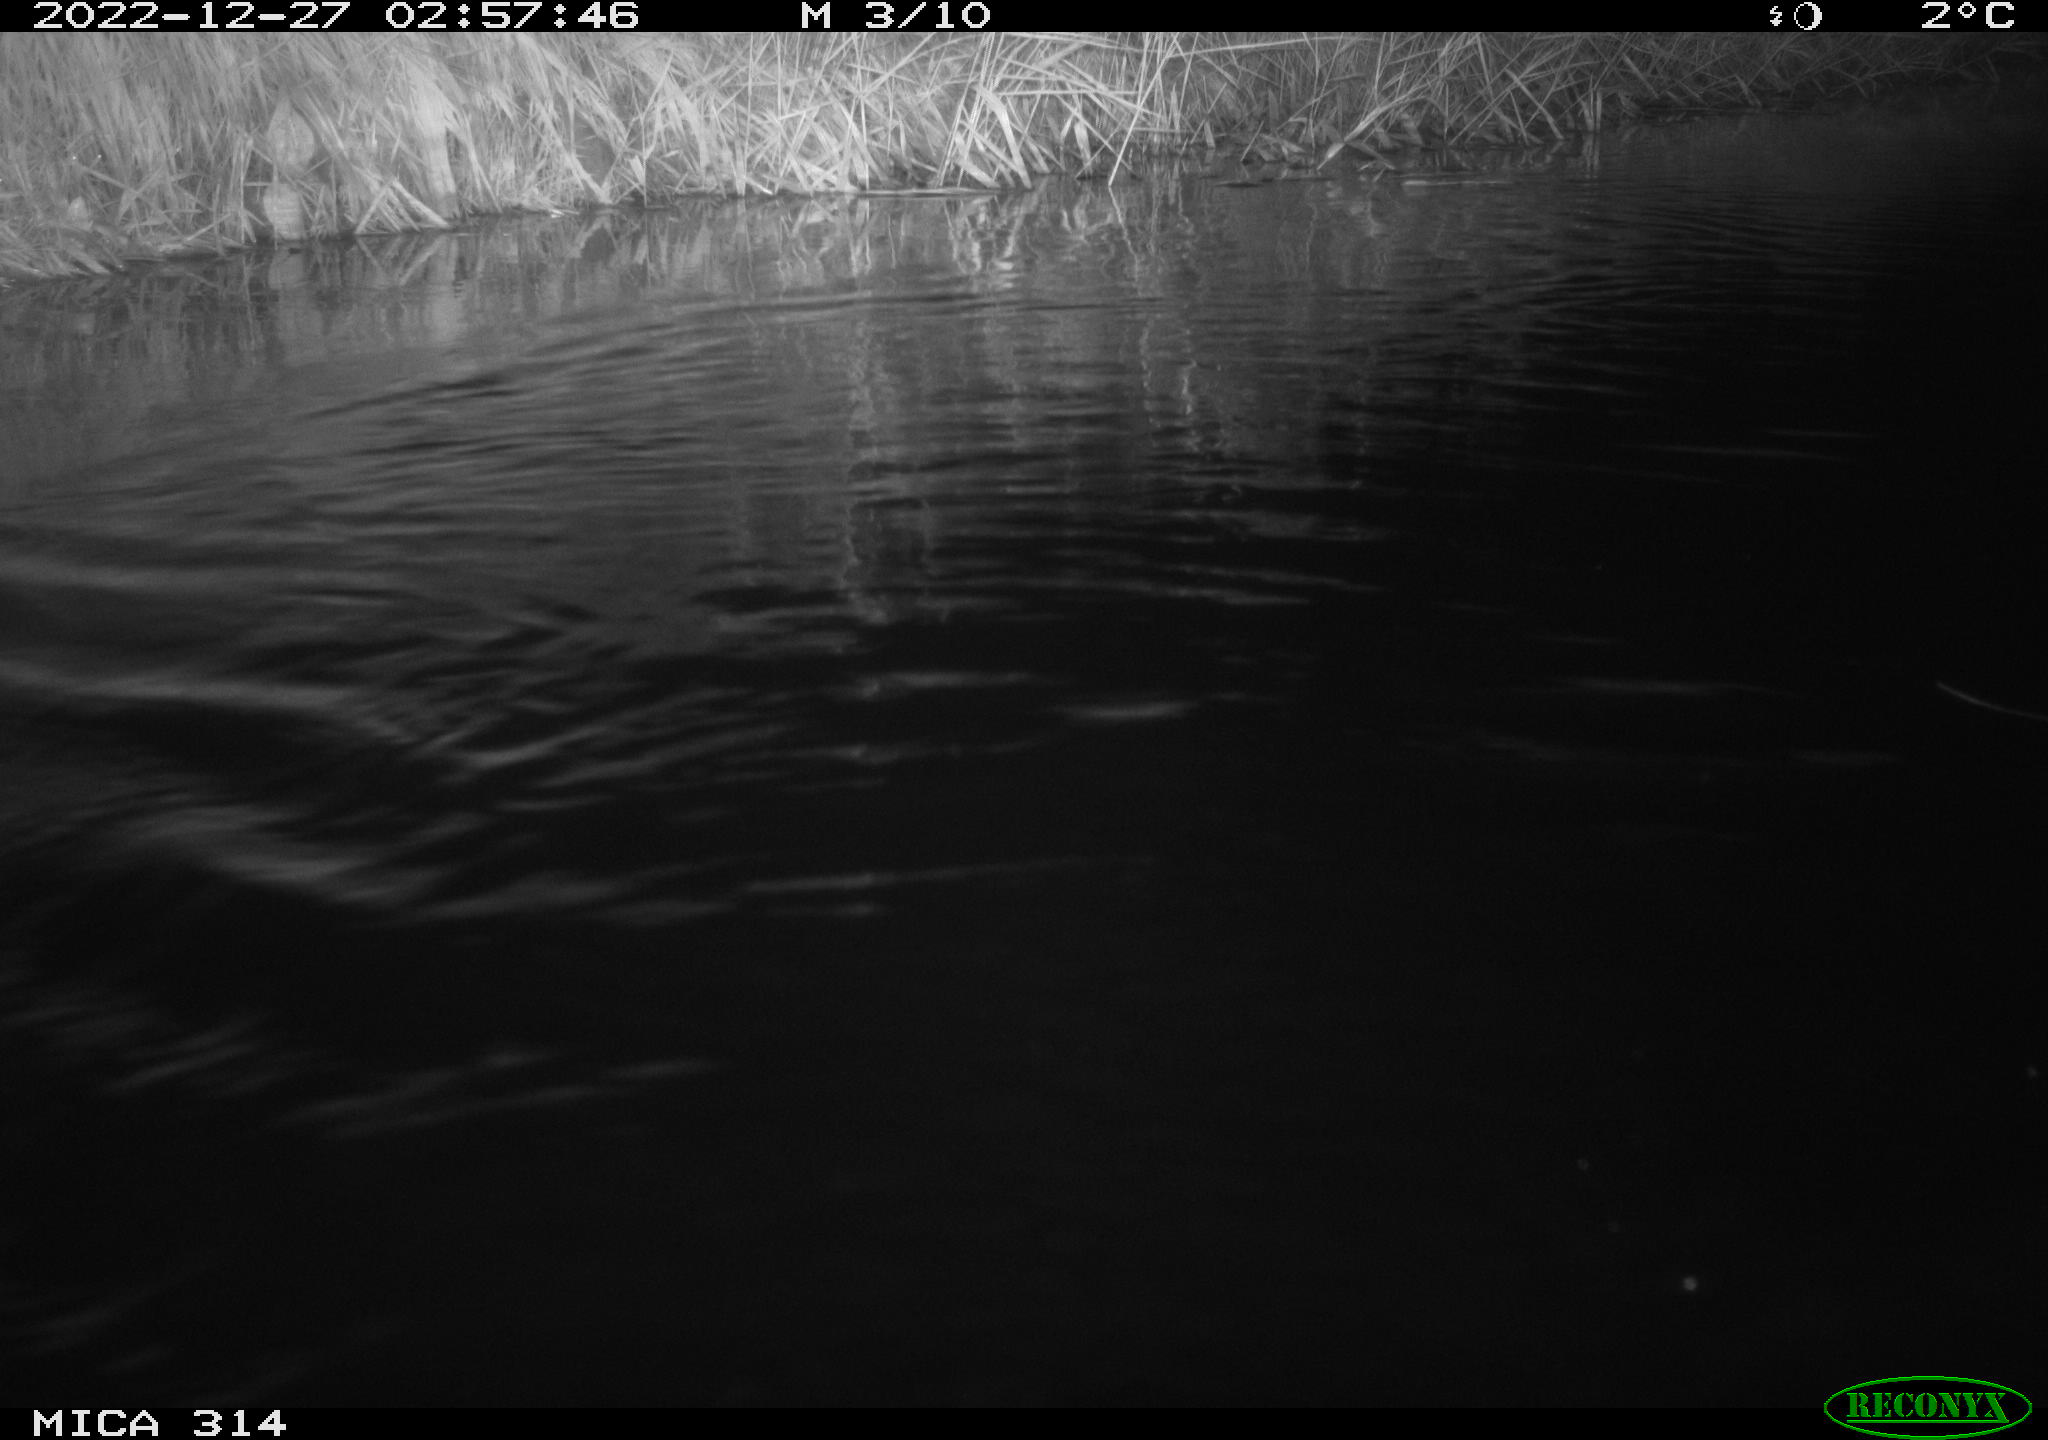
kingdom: Animalia
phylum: Chordata
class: Mammalia
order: Rodentia
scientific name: Rodentia
